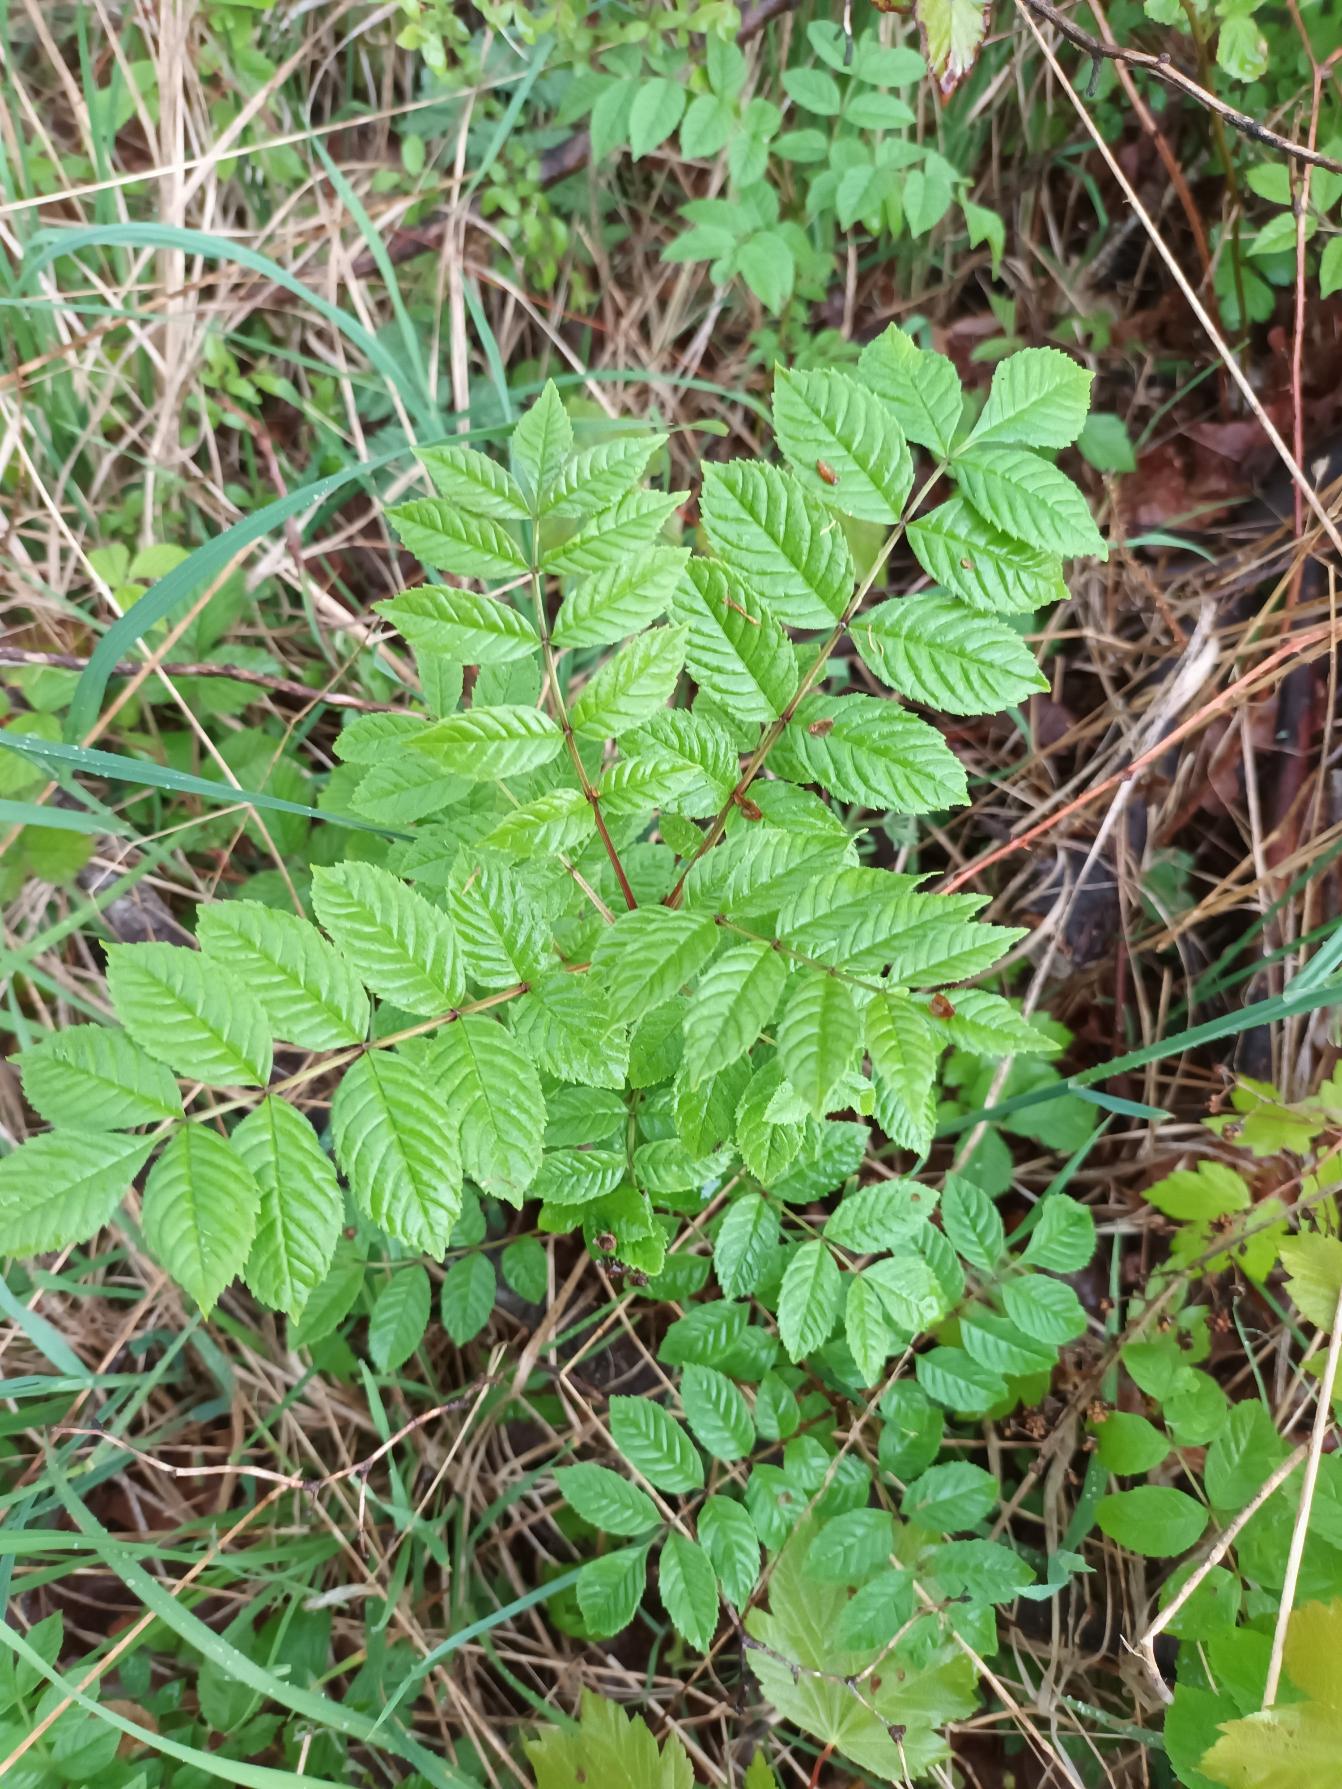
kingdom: Plantae
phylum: Tracheophyta
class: Magnoliopsida
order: Lamiales
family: Oleaceae
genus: Fraxinus
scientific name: Fraxinus excelsior
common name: Ask
